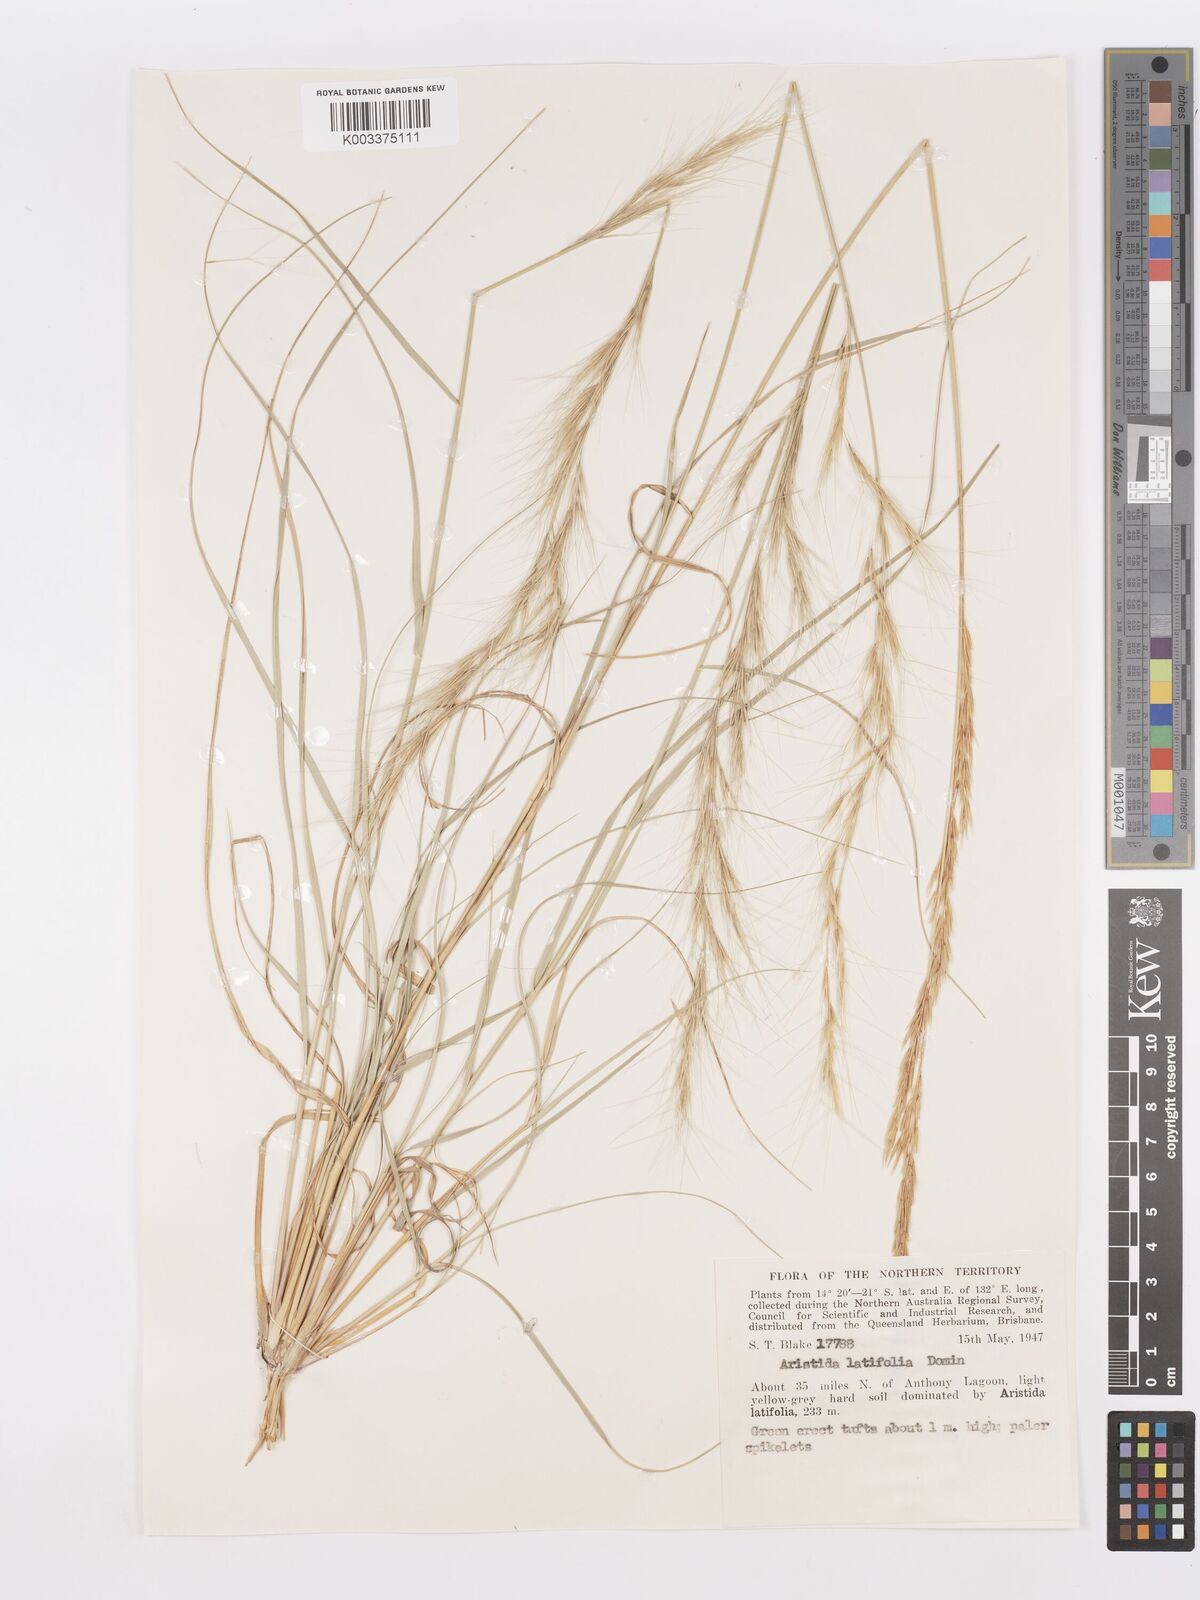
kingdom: Plantae
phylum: Tracheophyta
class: Liliopsida
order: Poales
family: Poaceae
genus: Aristida
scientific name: Aristida latifolia
